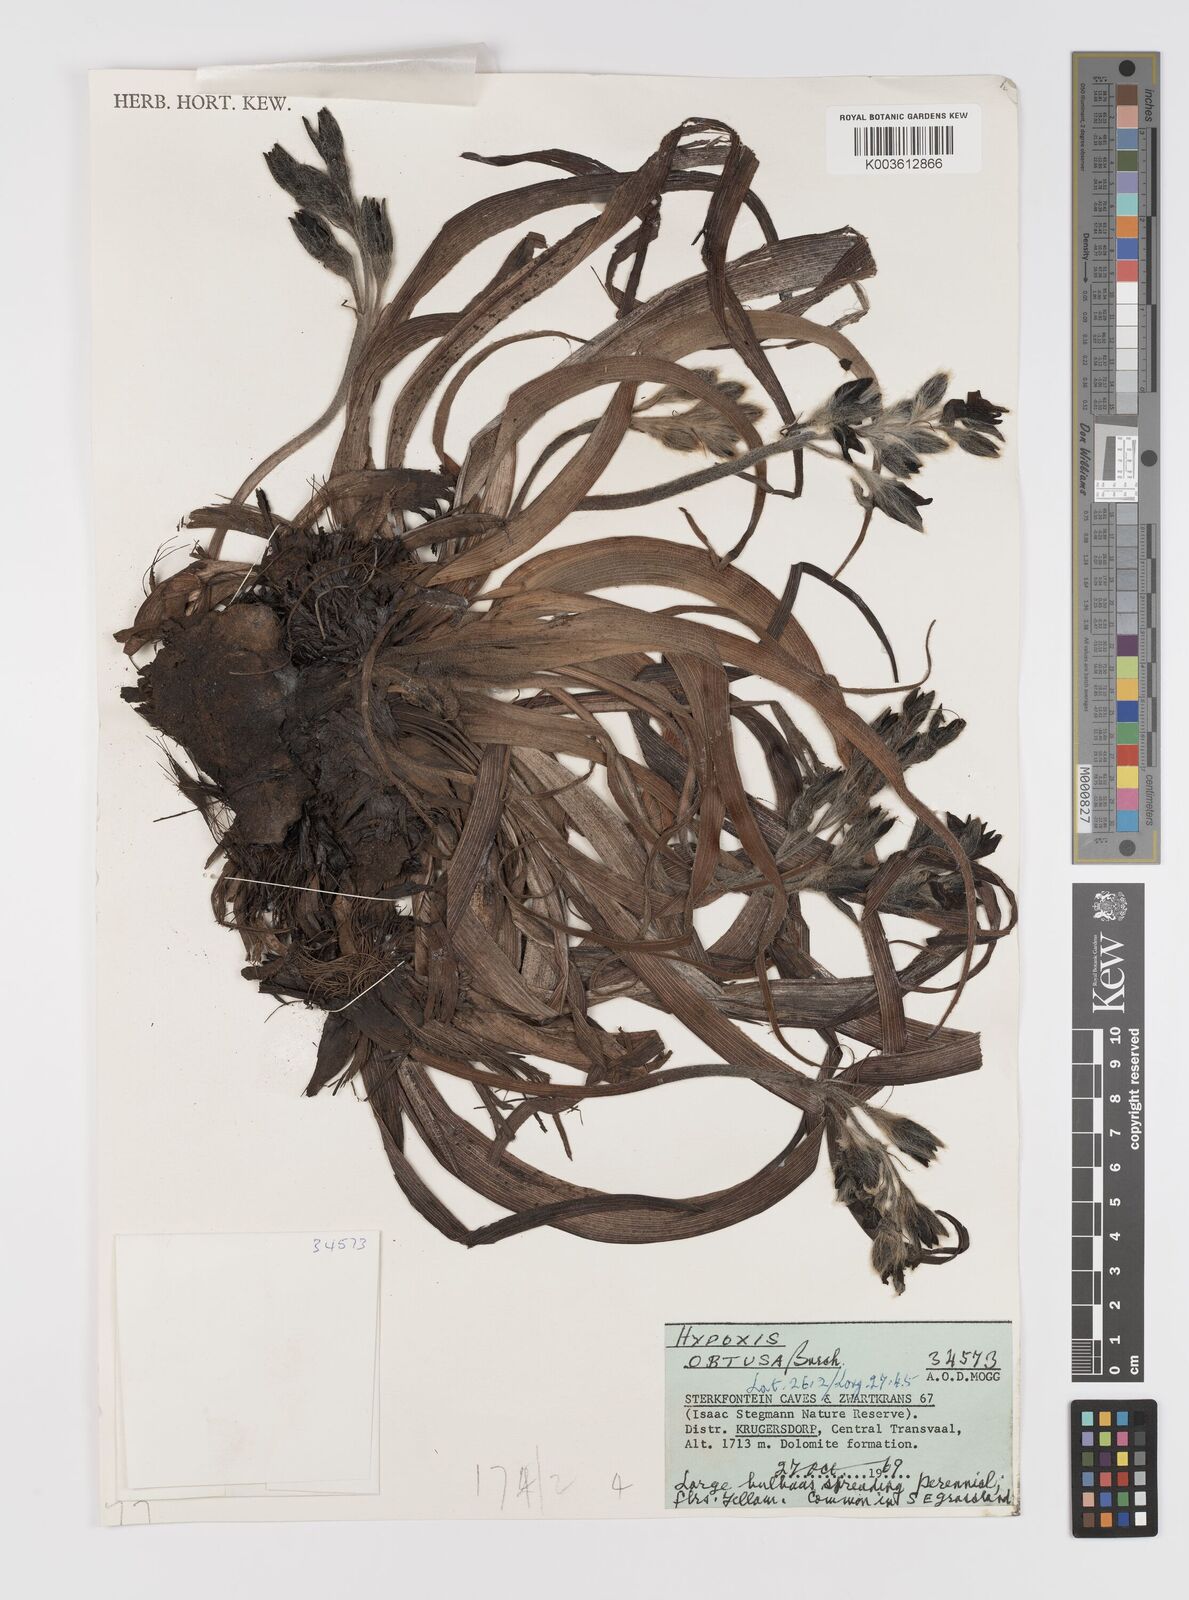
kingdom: Plantae
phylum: Tracheophyta
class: Liliopsida
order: Asparagales
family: Hypoxidaceae
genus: Hypoxis
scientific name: Hypoxis hemerocallidea
